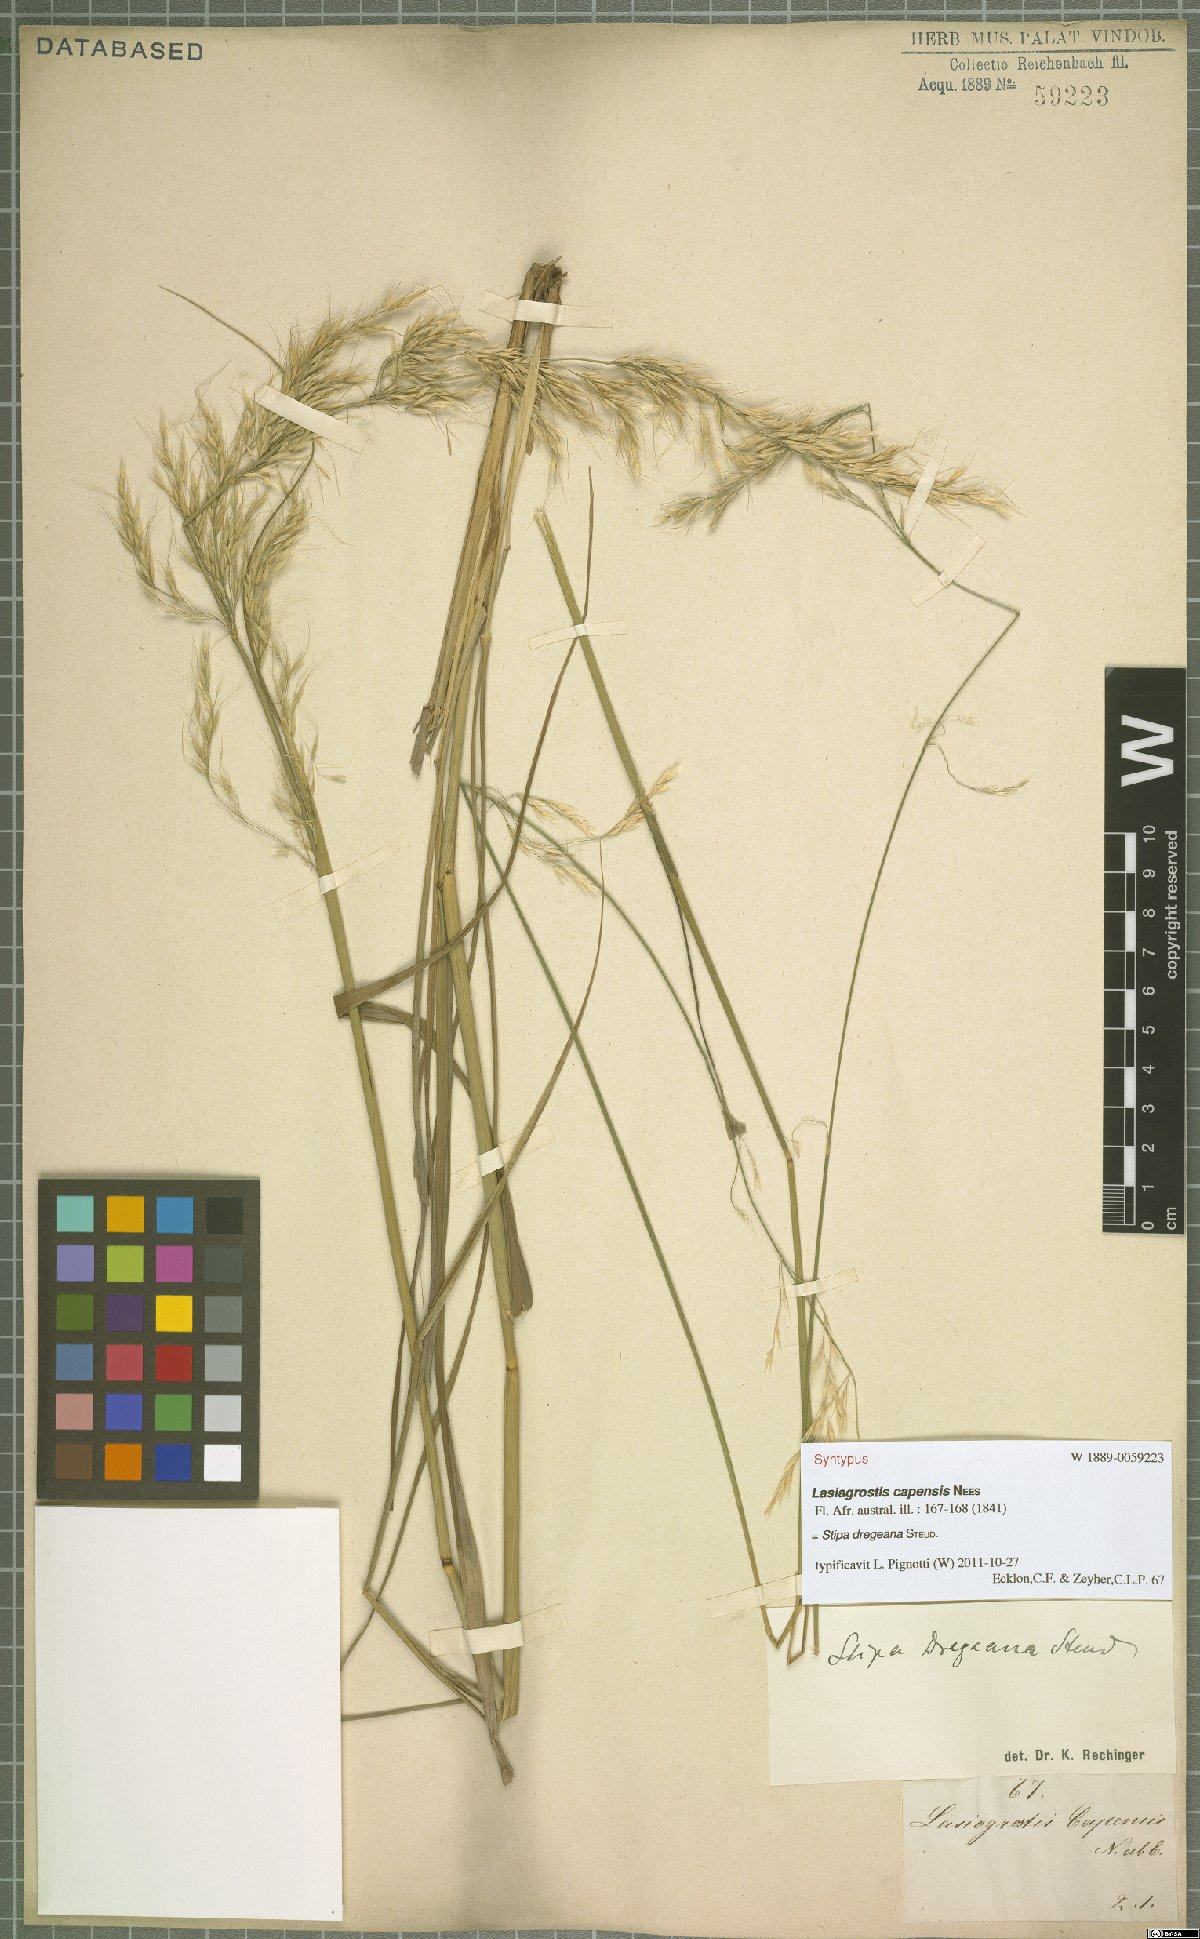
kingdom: Plantae
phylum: Tracheophyta
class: Liliopsida
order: Poales
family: Poaceae
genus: Stipa
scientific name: Stipa dregeana
